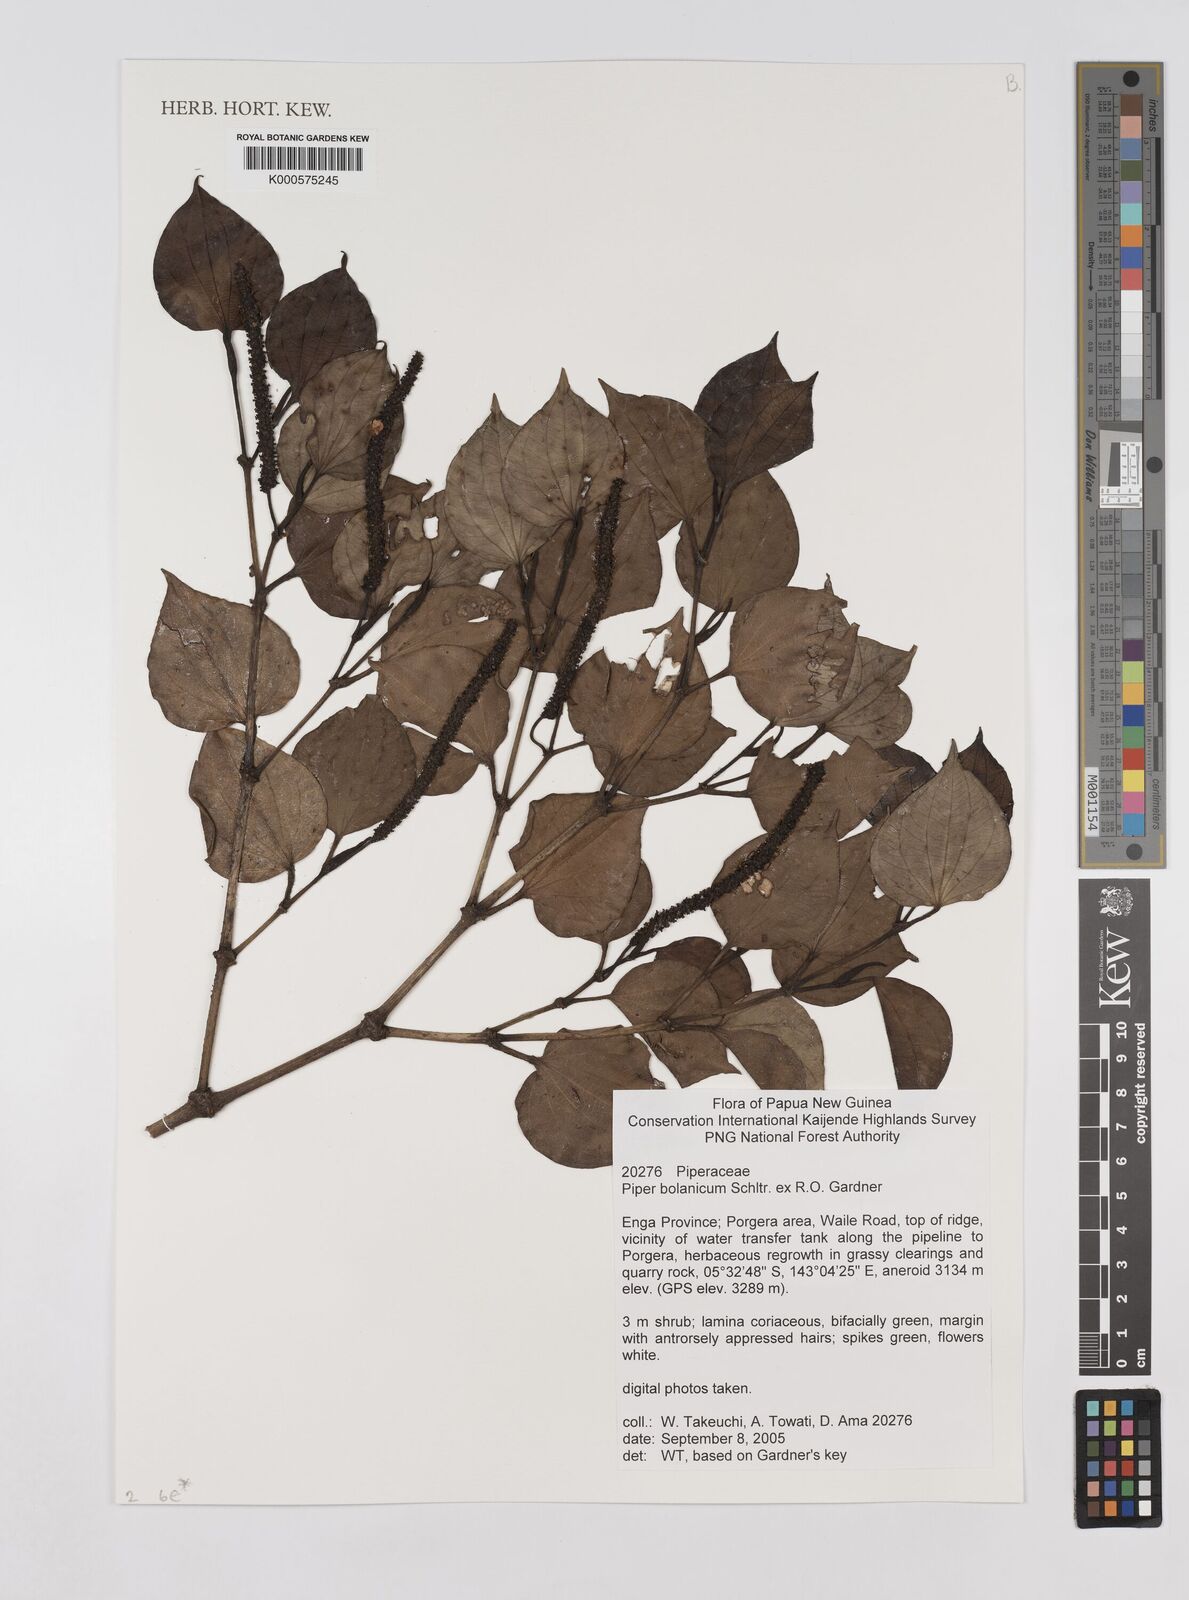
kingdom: Plantae
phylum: Tracheophyta
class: Magnoliopsida
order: Piperales
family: Piperaceae
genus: Piper
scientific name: Piper bolanicum
